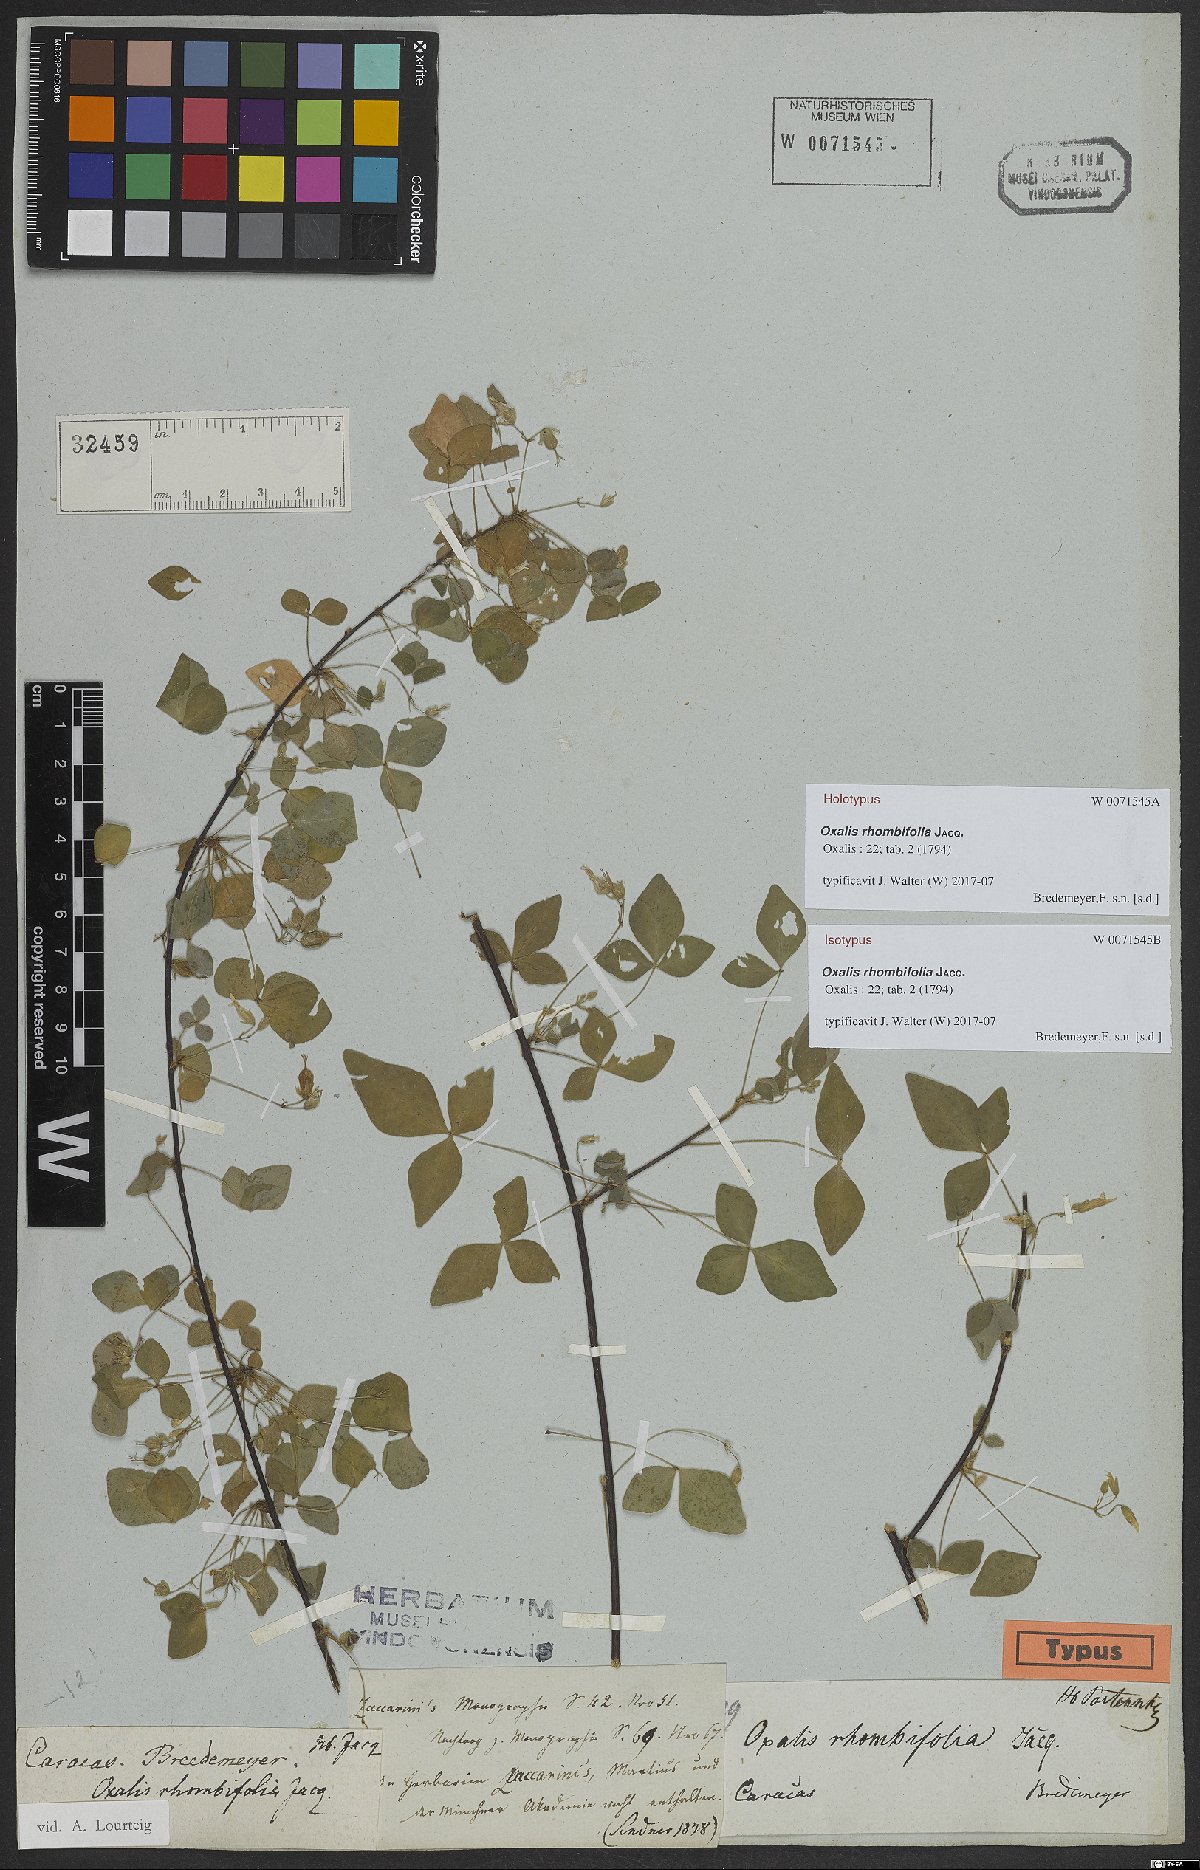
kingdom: Plantae
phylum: Tracheophyta
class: Magnoliopsida
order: Oxalidales
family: Oxalidaceae
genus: Oxalis
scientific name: Oxalis rhombifolia
